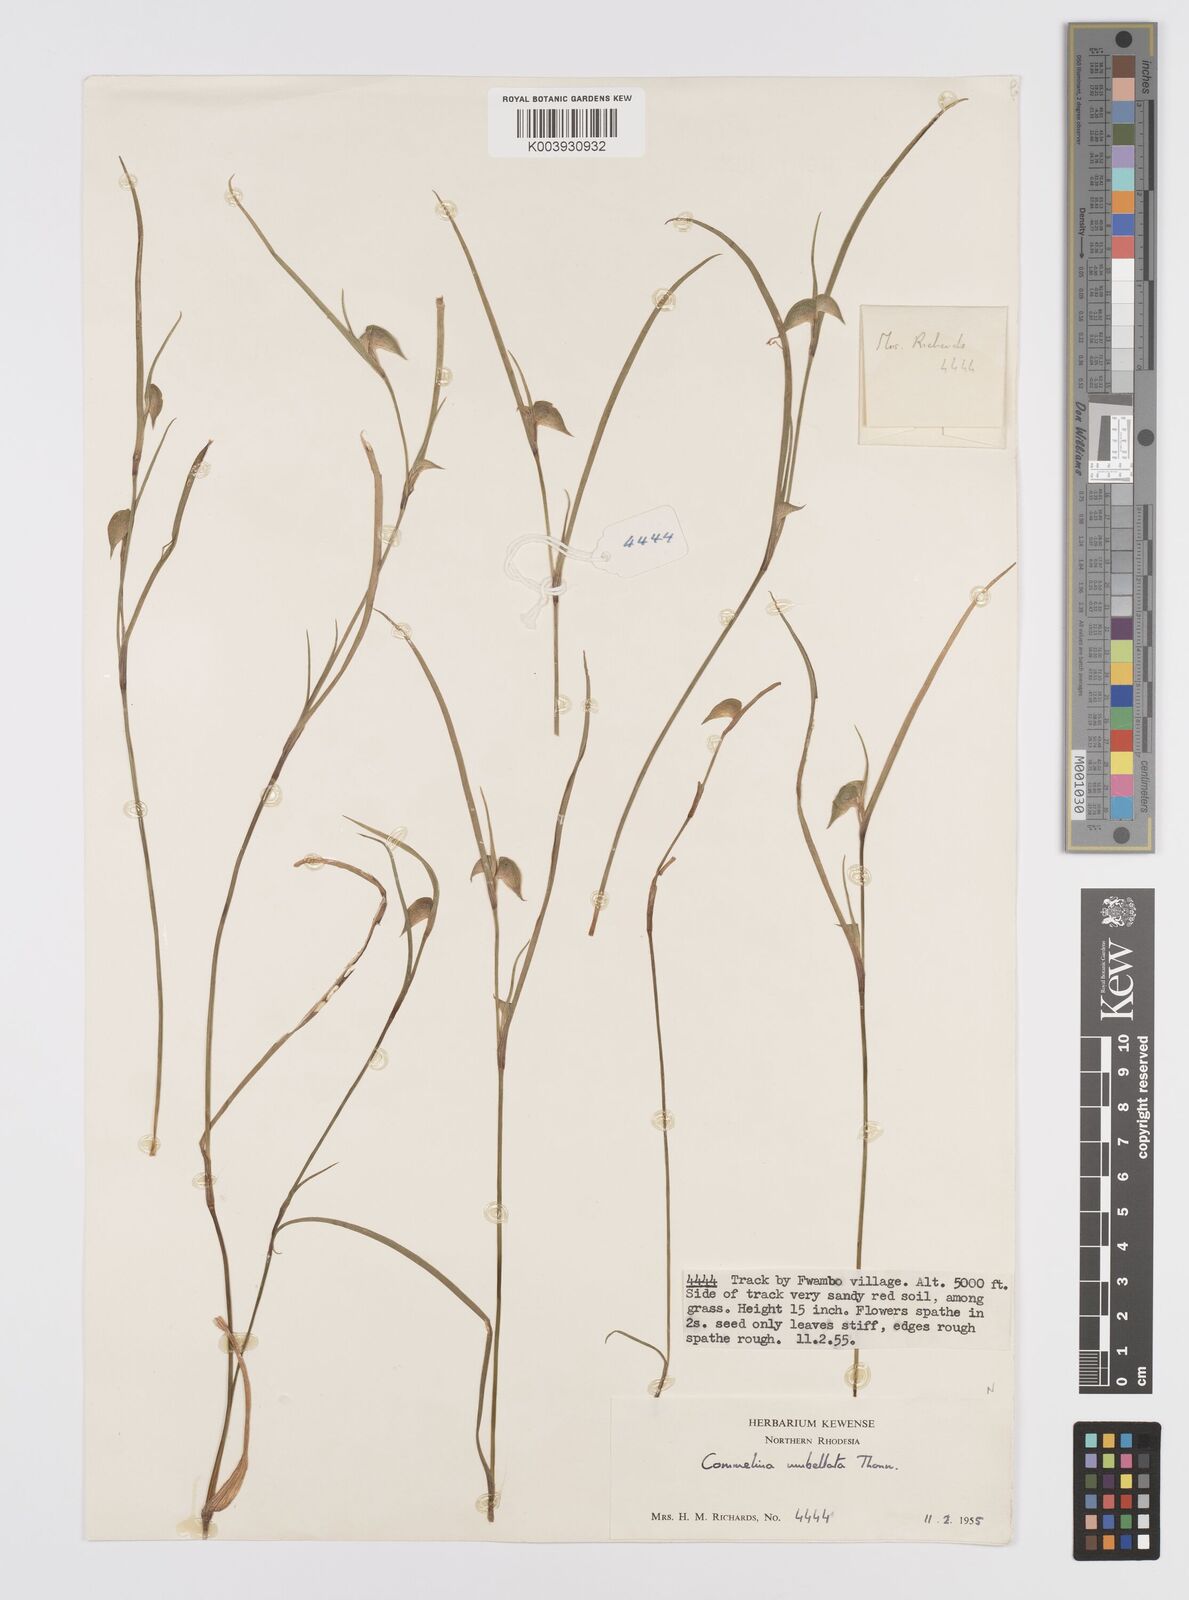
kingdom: Plantae
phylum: Tracheophyta
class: Liliopsida
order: Commelinales
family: Commelinaceae
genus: Commelina
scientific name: Commelina nigritana
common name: African dayflower
